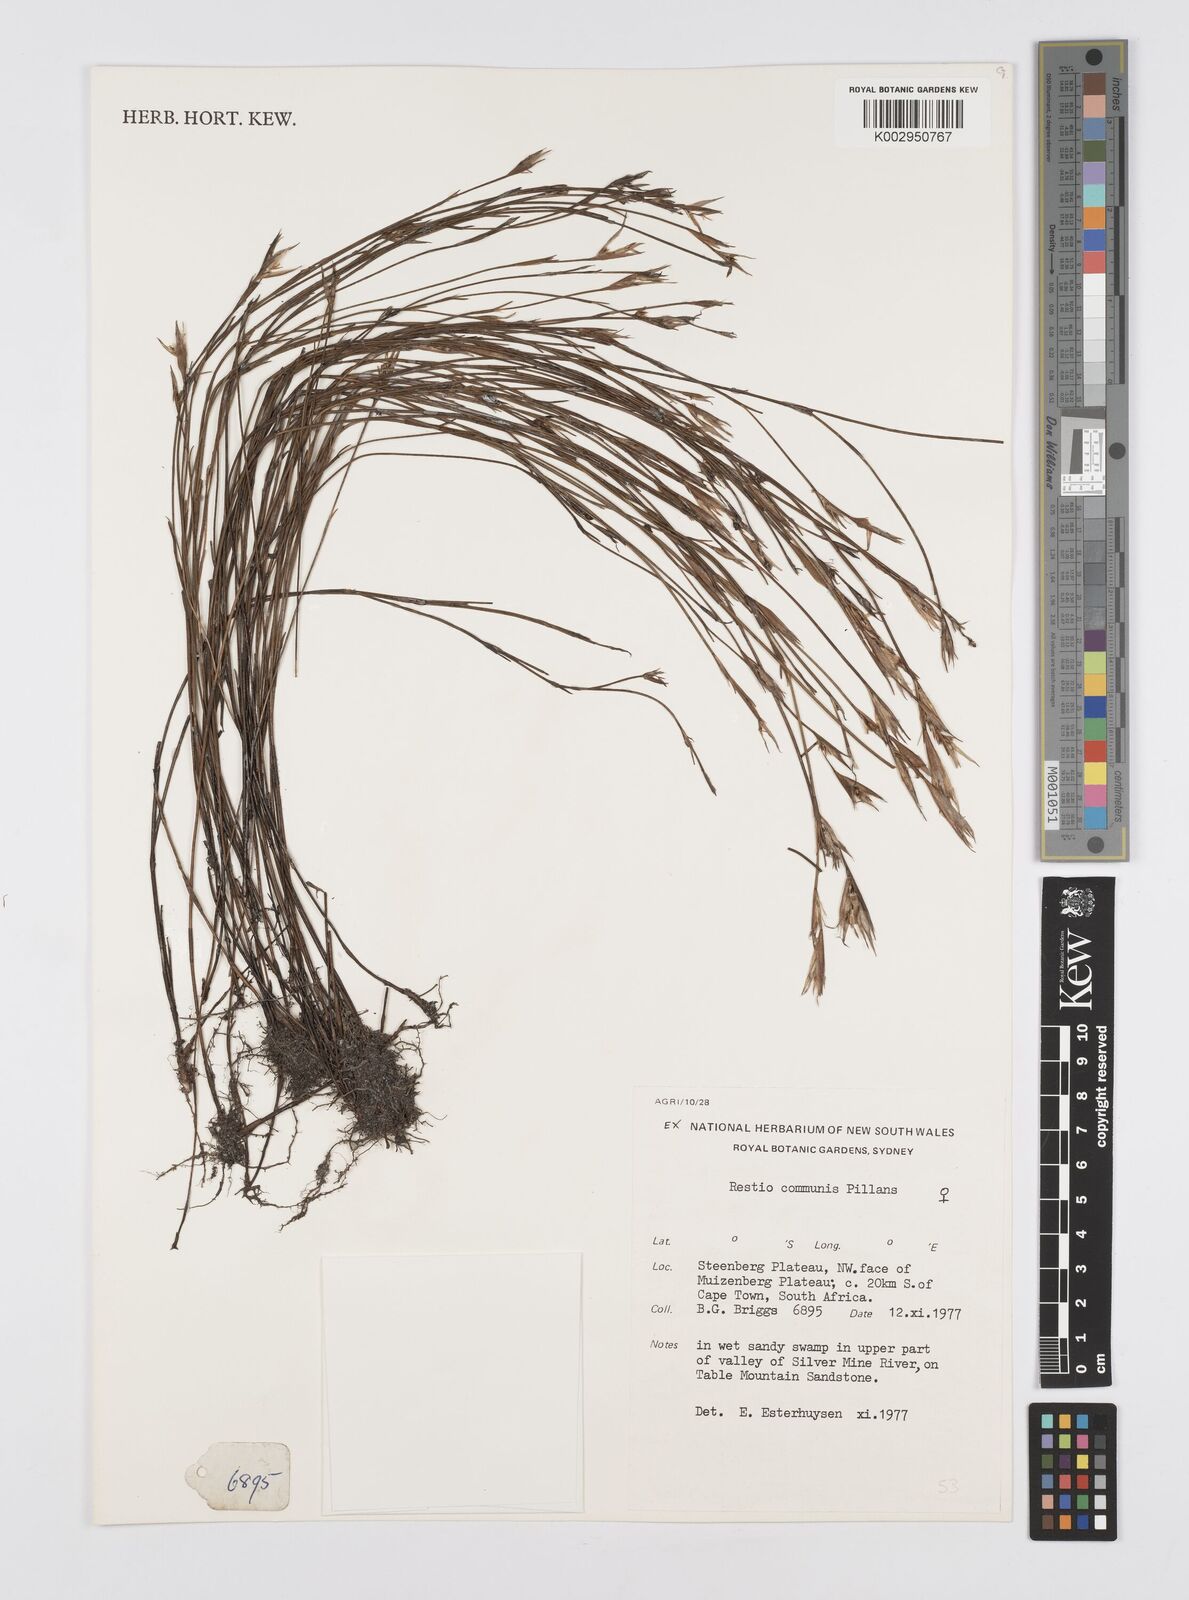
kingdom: Plantae
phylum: Tracheophyta
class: Liliopsida
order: Poales
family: Restionaceae
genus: Restio
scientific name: Restio communis
